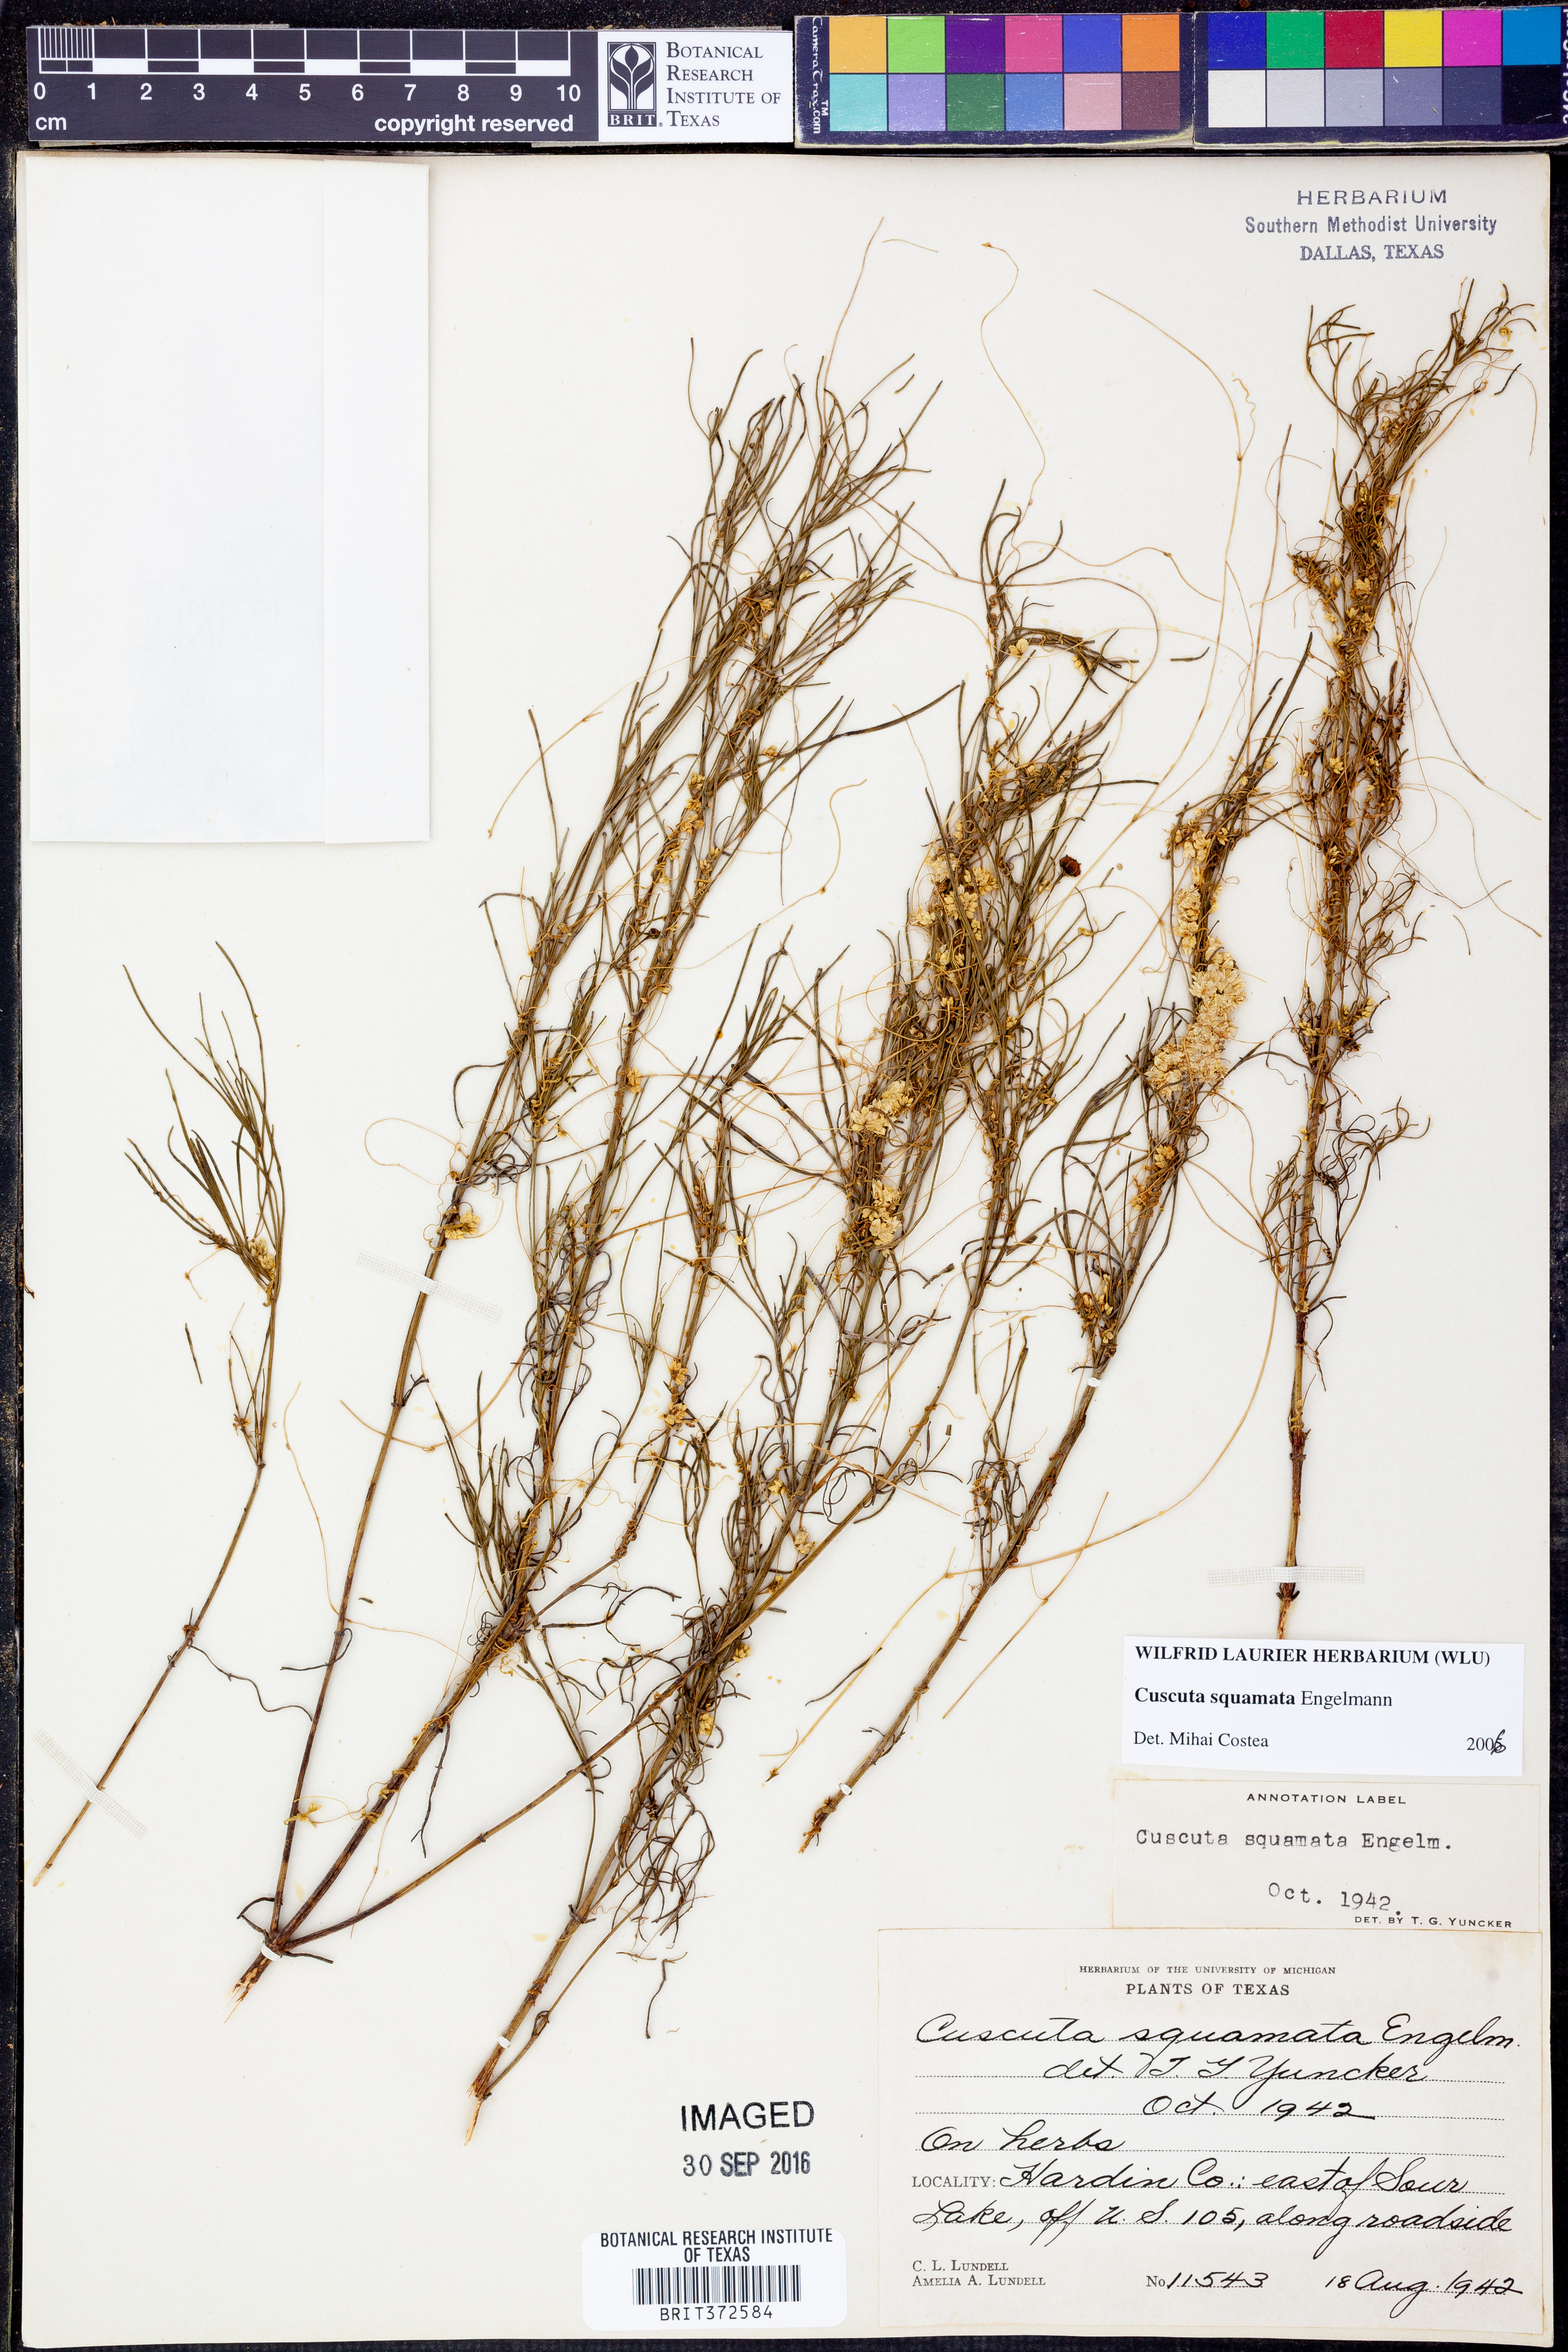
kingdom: Plantae
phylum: Tracheophyta
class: Magnoliopsida
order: Solanales
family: Convolvulaceae
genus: Cuscuta
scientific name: Cuscuta squamata
